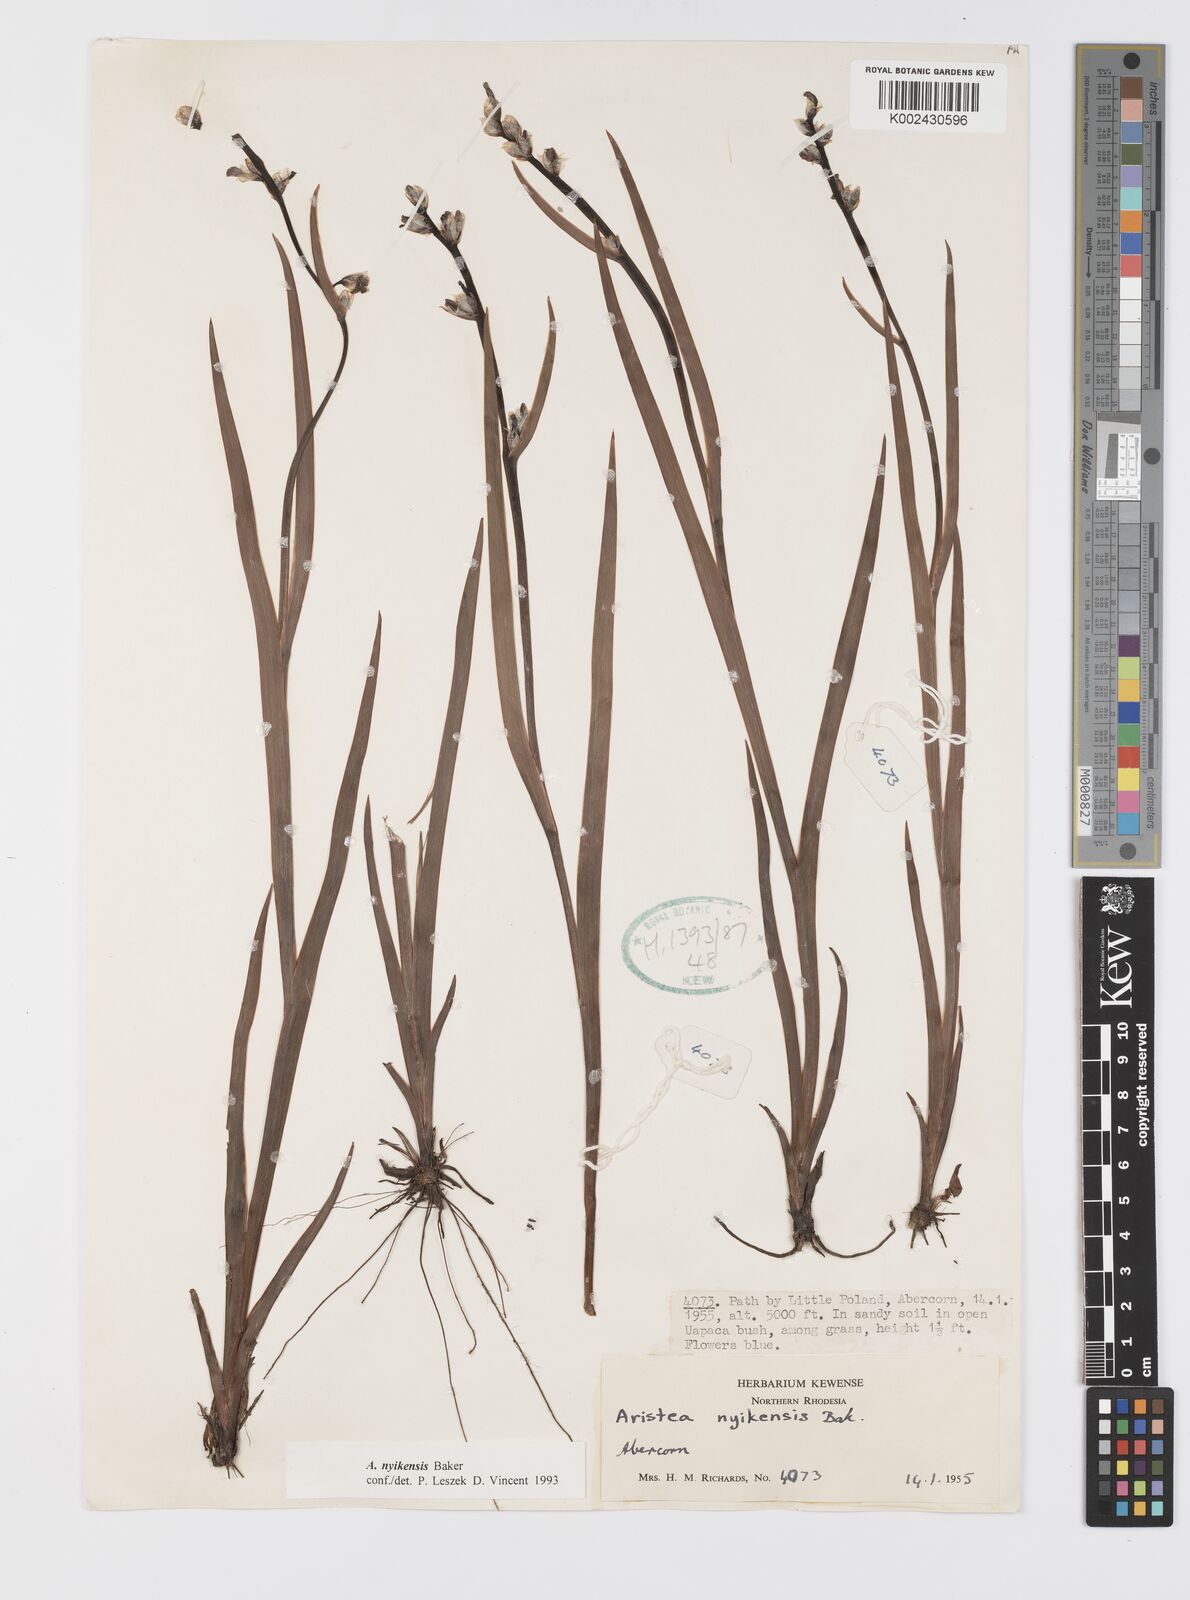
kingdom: Plantae
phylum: Tracheophyta
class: Liliopsida
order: Asparagales
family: Iridaceae
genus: Aristea
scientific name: Aristea nyikensis
